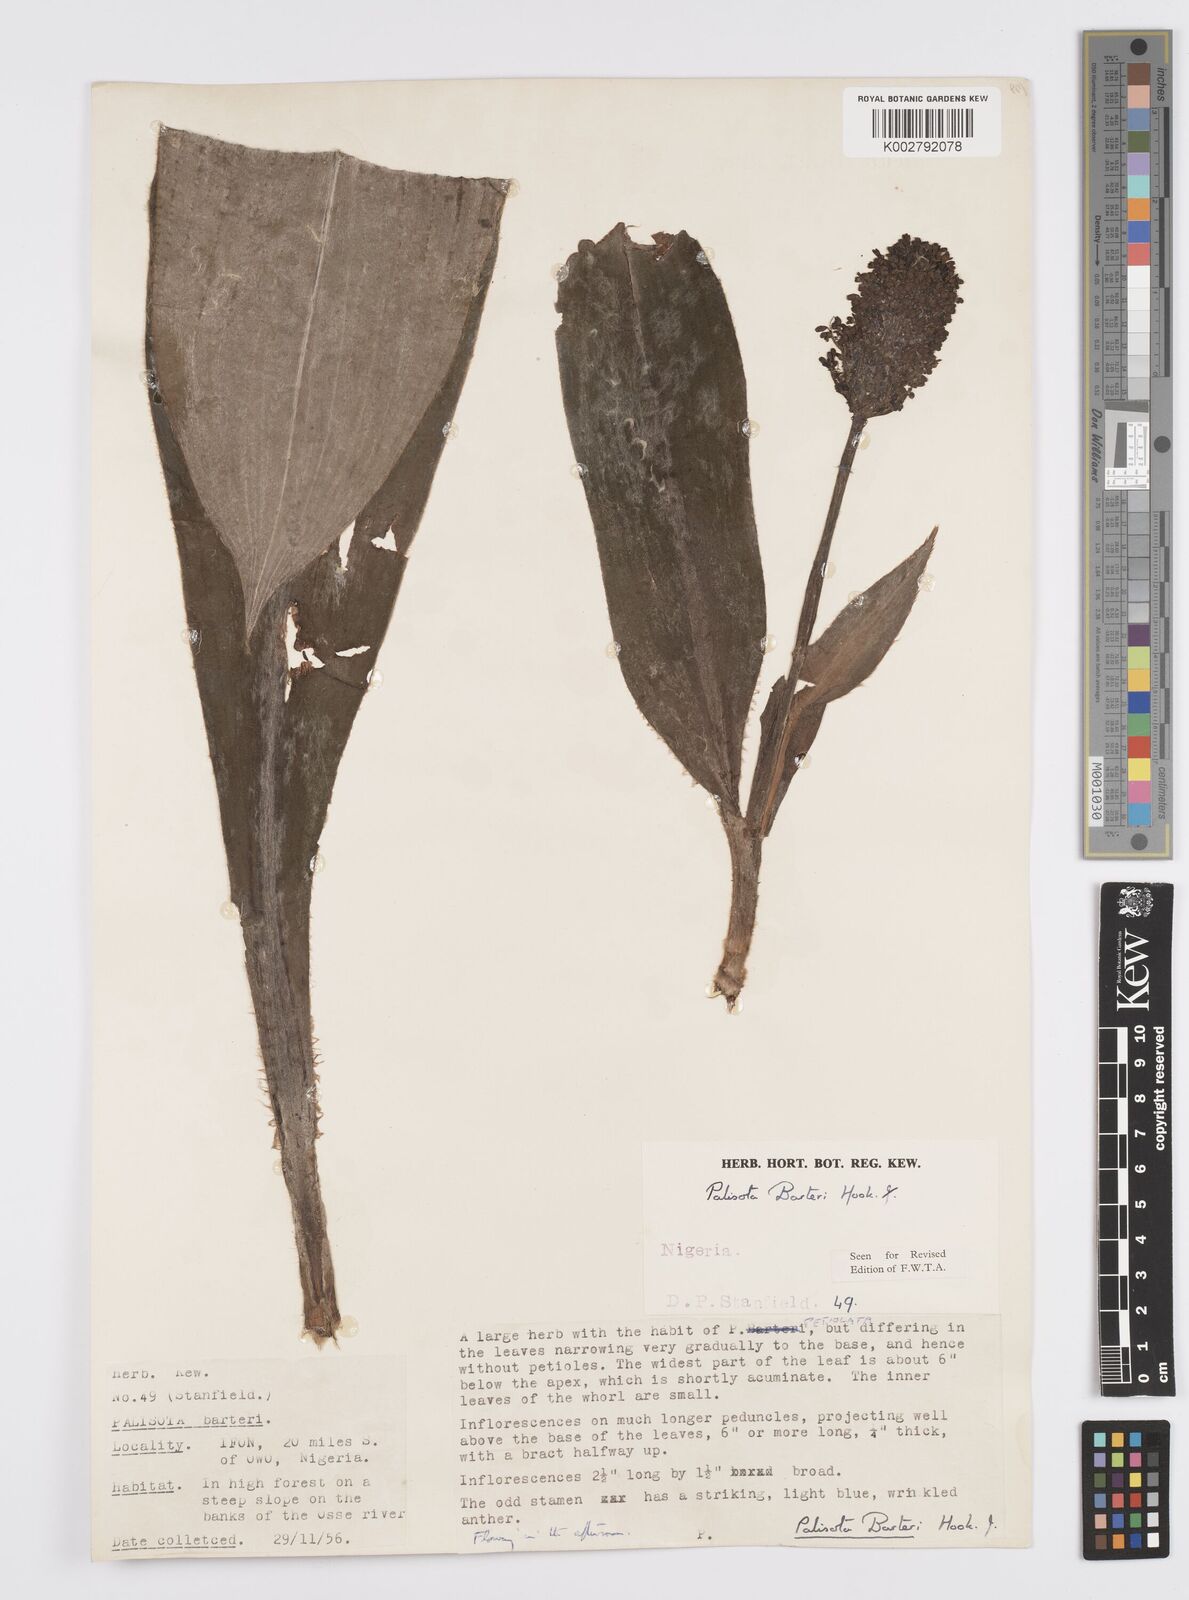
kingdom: Plantae
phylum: Tracheophyta
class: Liliopsida
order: Commelinales
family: Commelinaceae
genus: Palisota
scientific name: Palisota barteri
